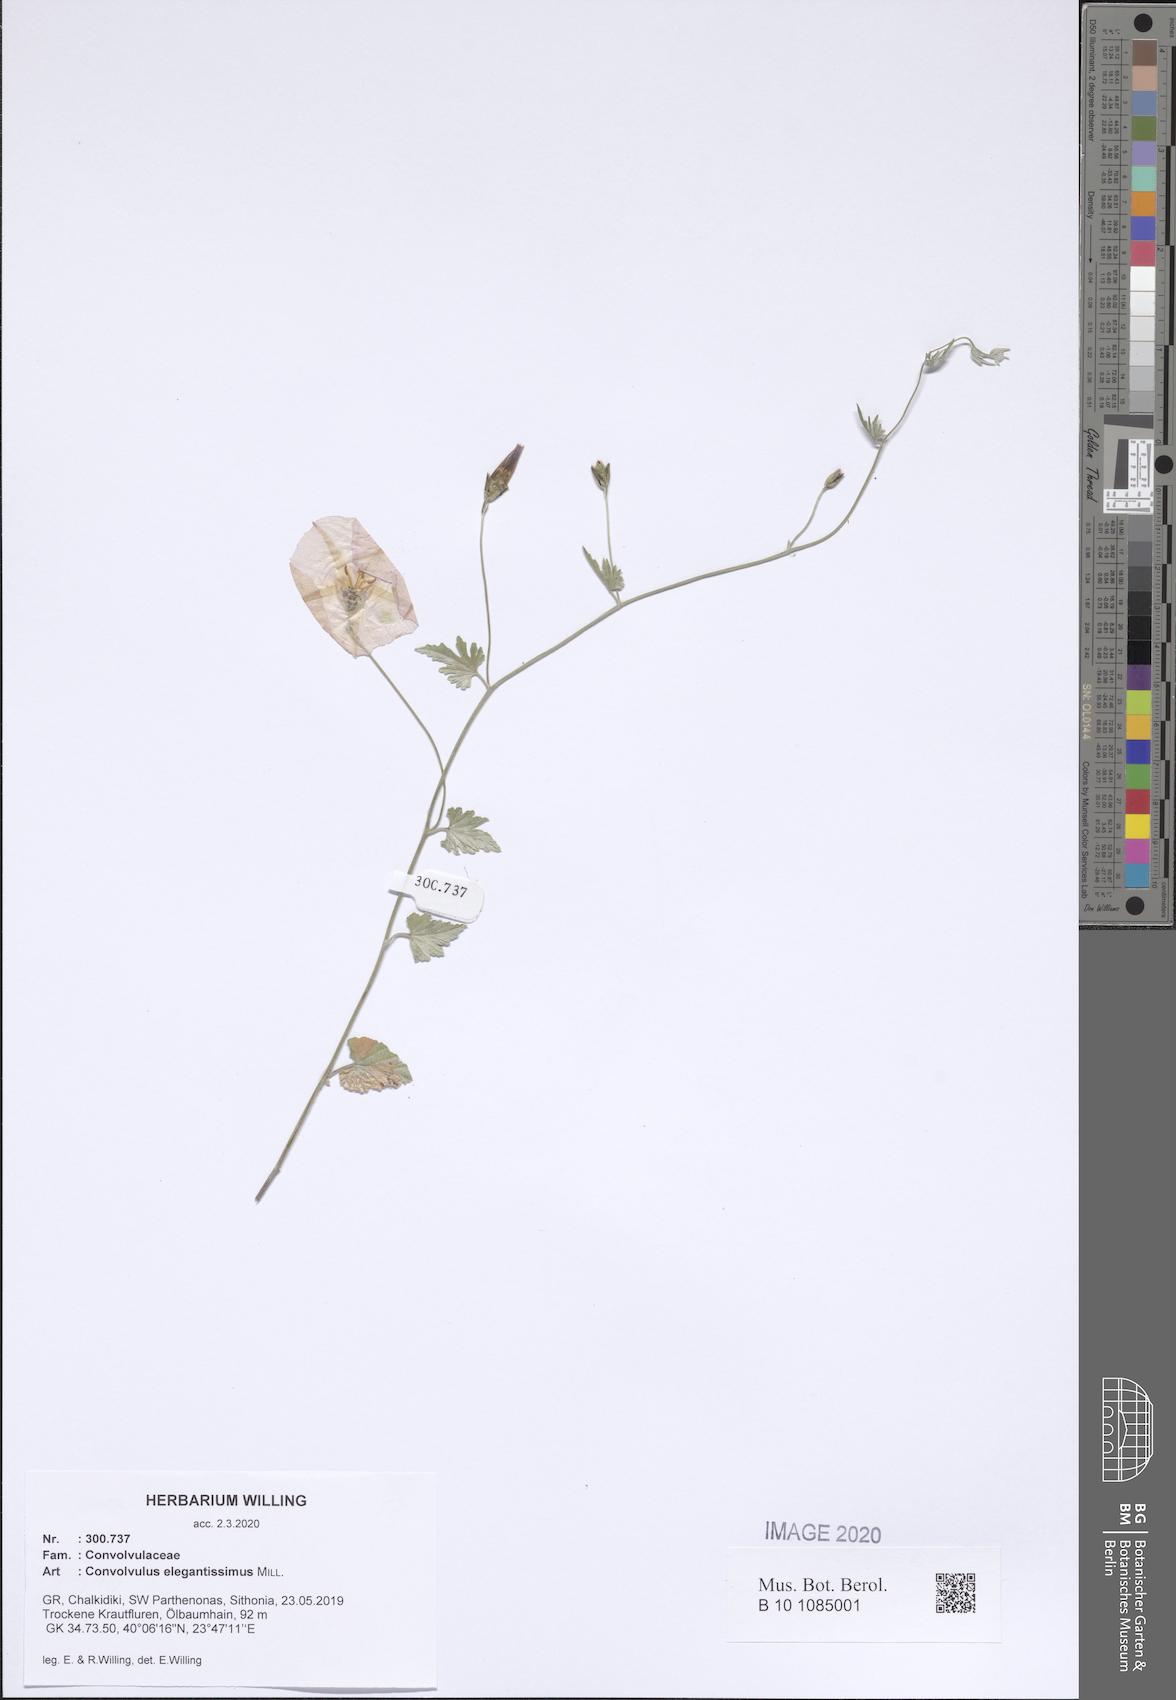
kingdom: Plantae
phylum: Tracheophyta
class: Magnoliopsida
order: Solanales
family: Convolvulaceae
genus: Convolvulus
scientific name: Convolvulus elegantissimus
